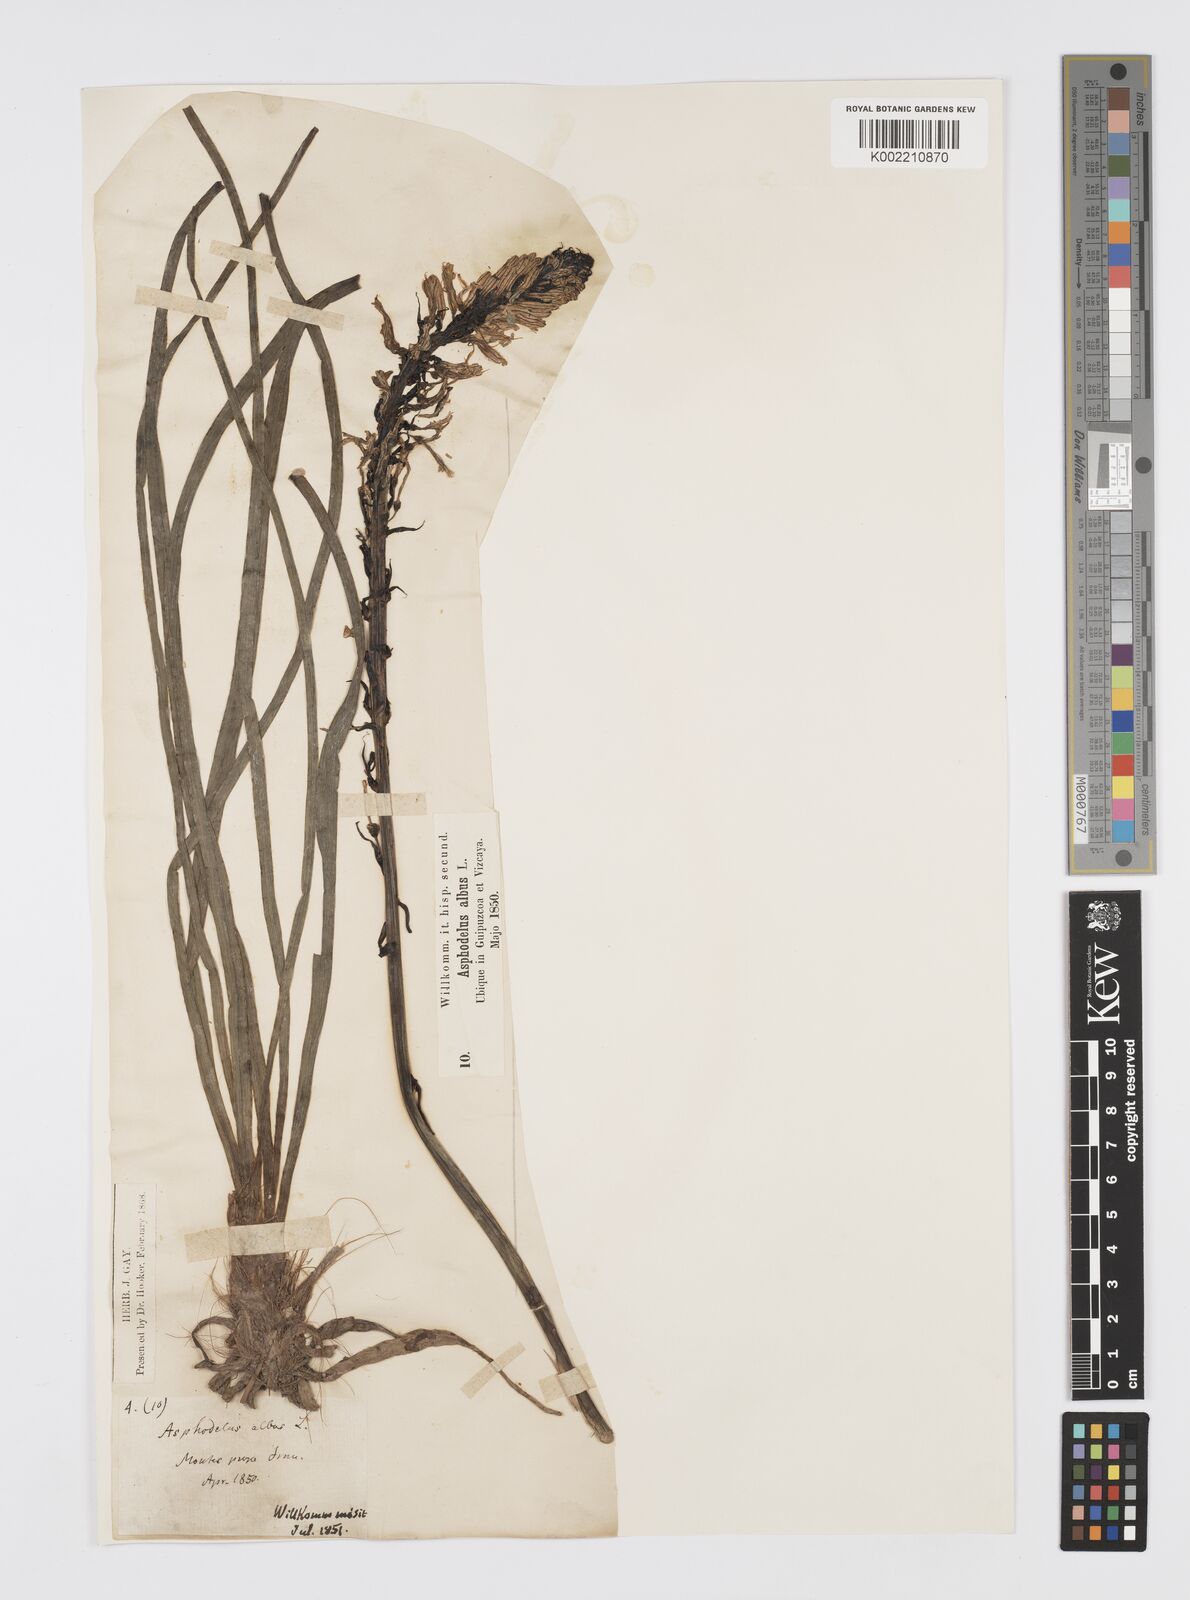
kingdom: Plantae
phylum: Tracheophyta
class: Liliopsida
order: Asparagales
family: Asphodelaceae
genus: Asphodelus
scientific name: Asphodelus albus
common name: White asphodel
